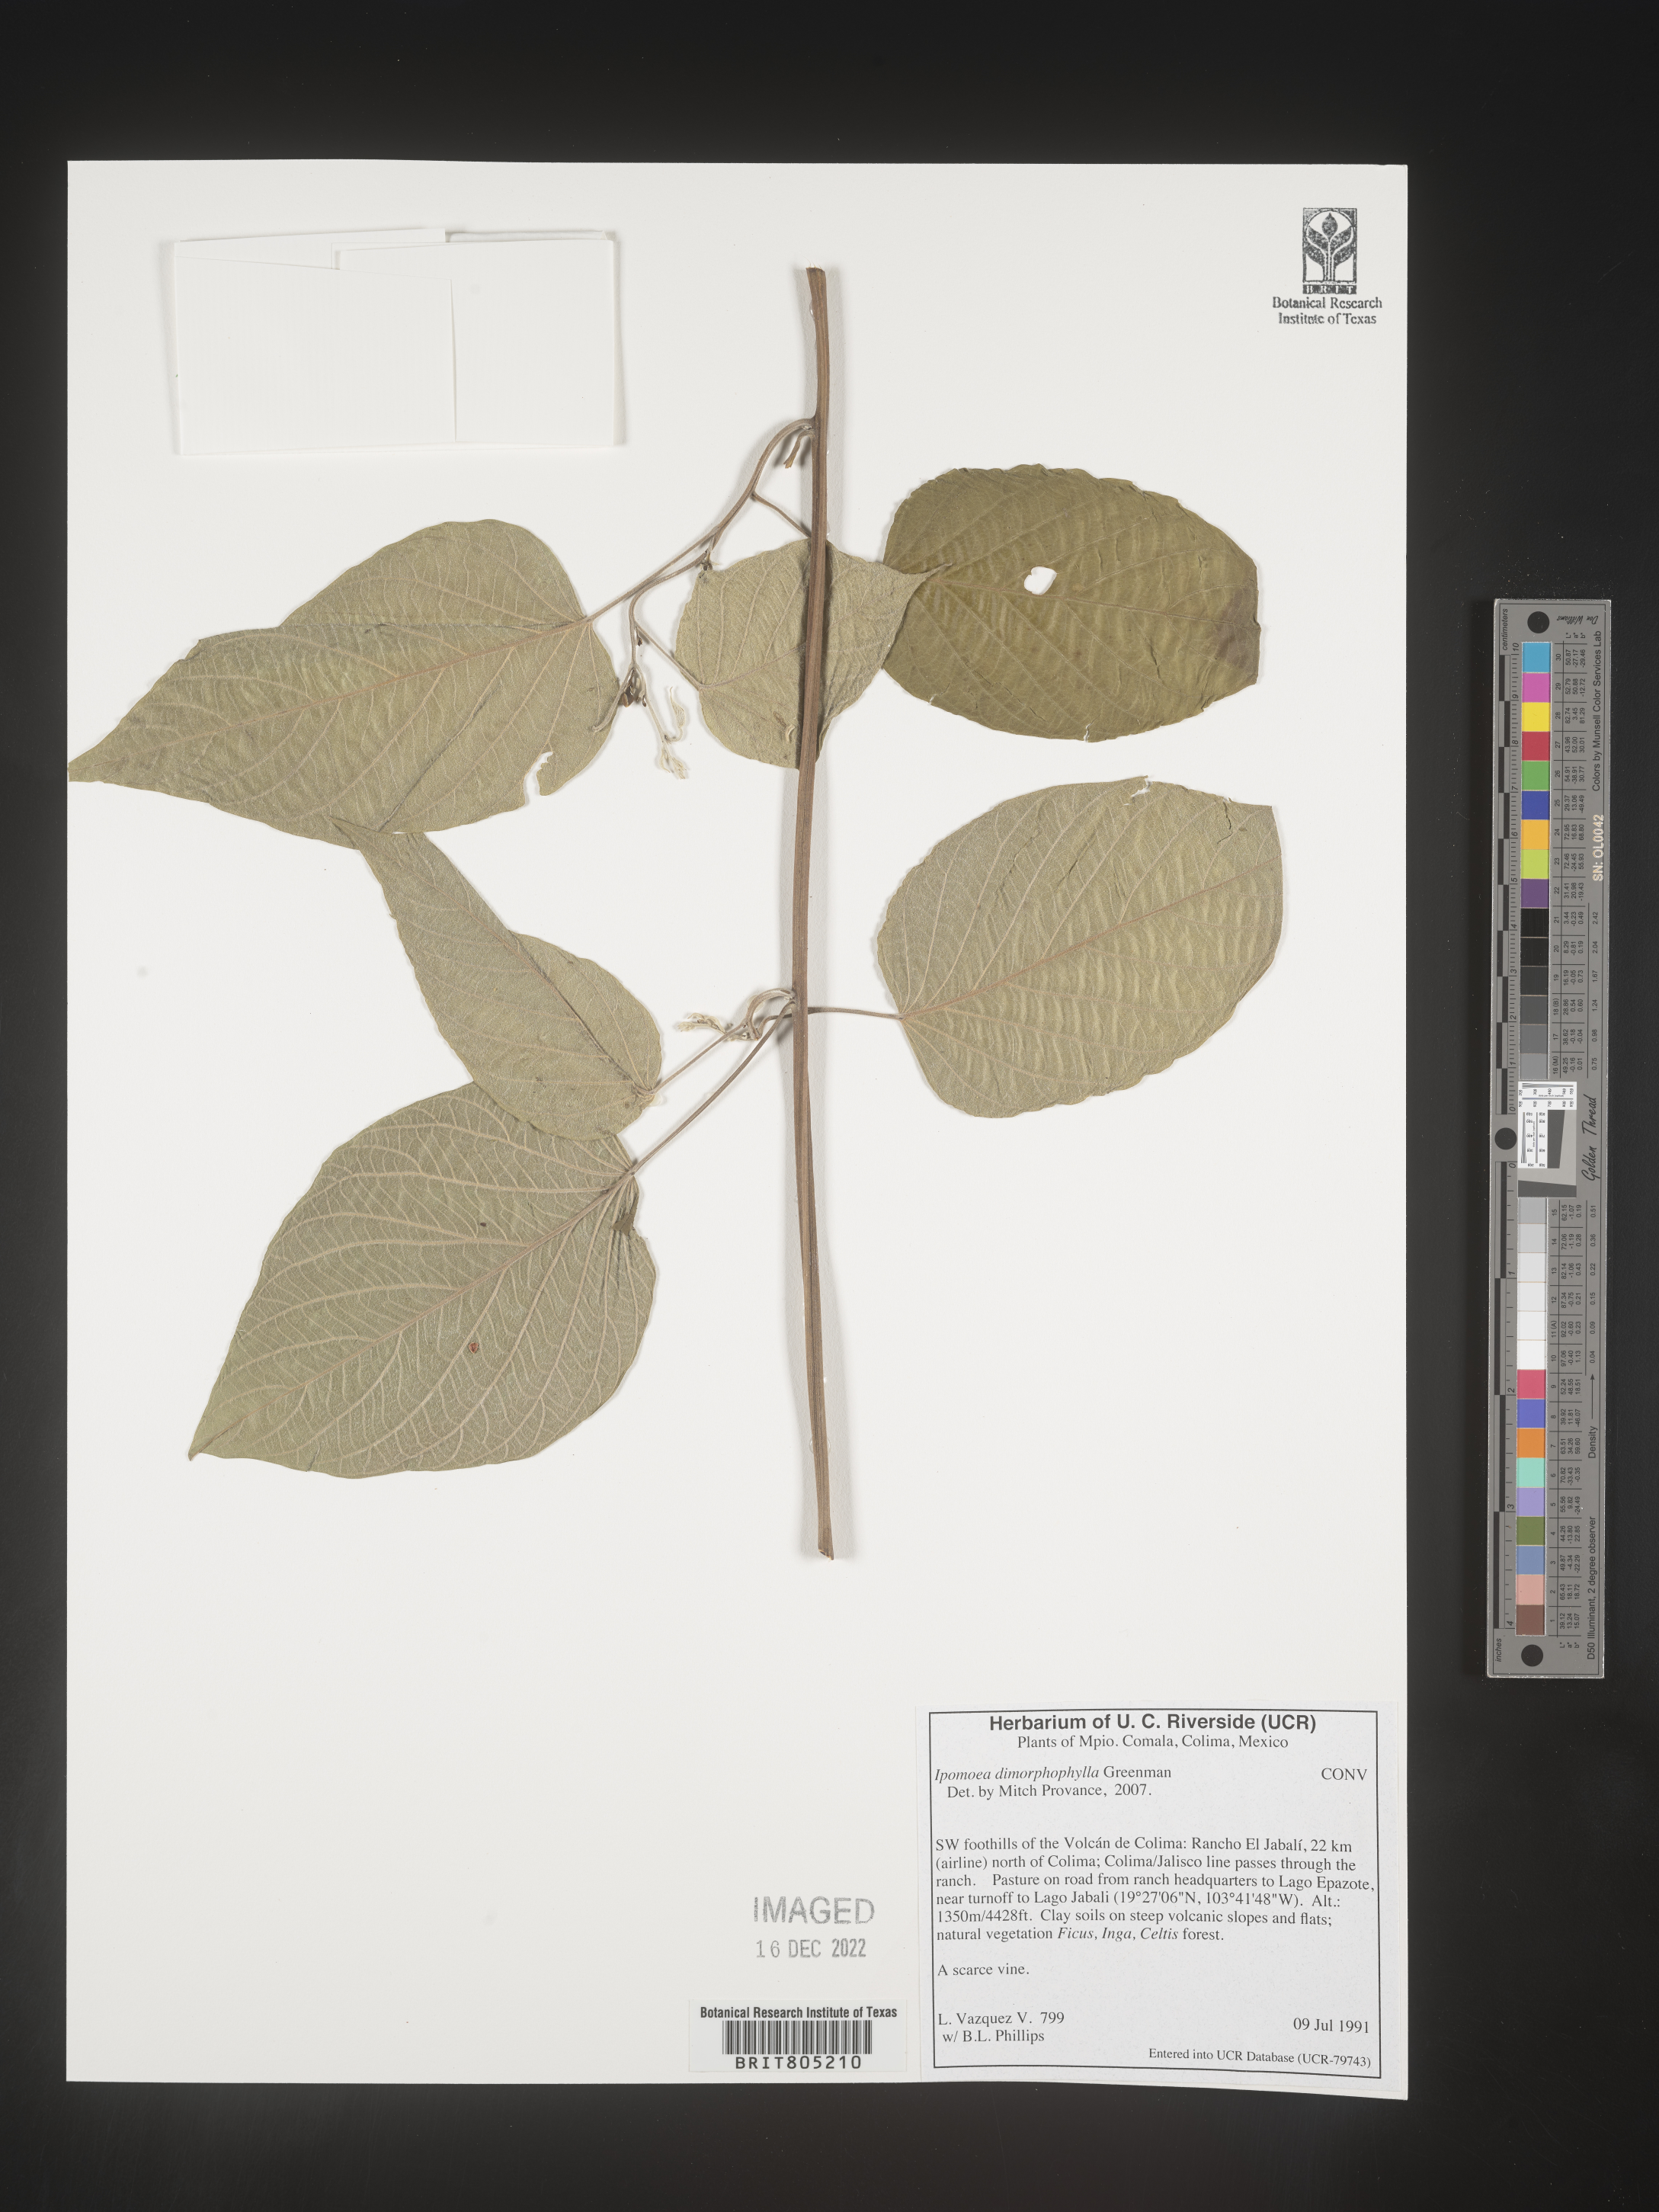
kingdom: Plantae
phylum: Tracheophyta
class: Magnoliopsida
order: Solanales
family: Convolvulaceae
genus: Ipomoea
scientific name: Ipomoea
